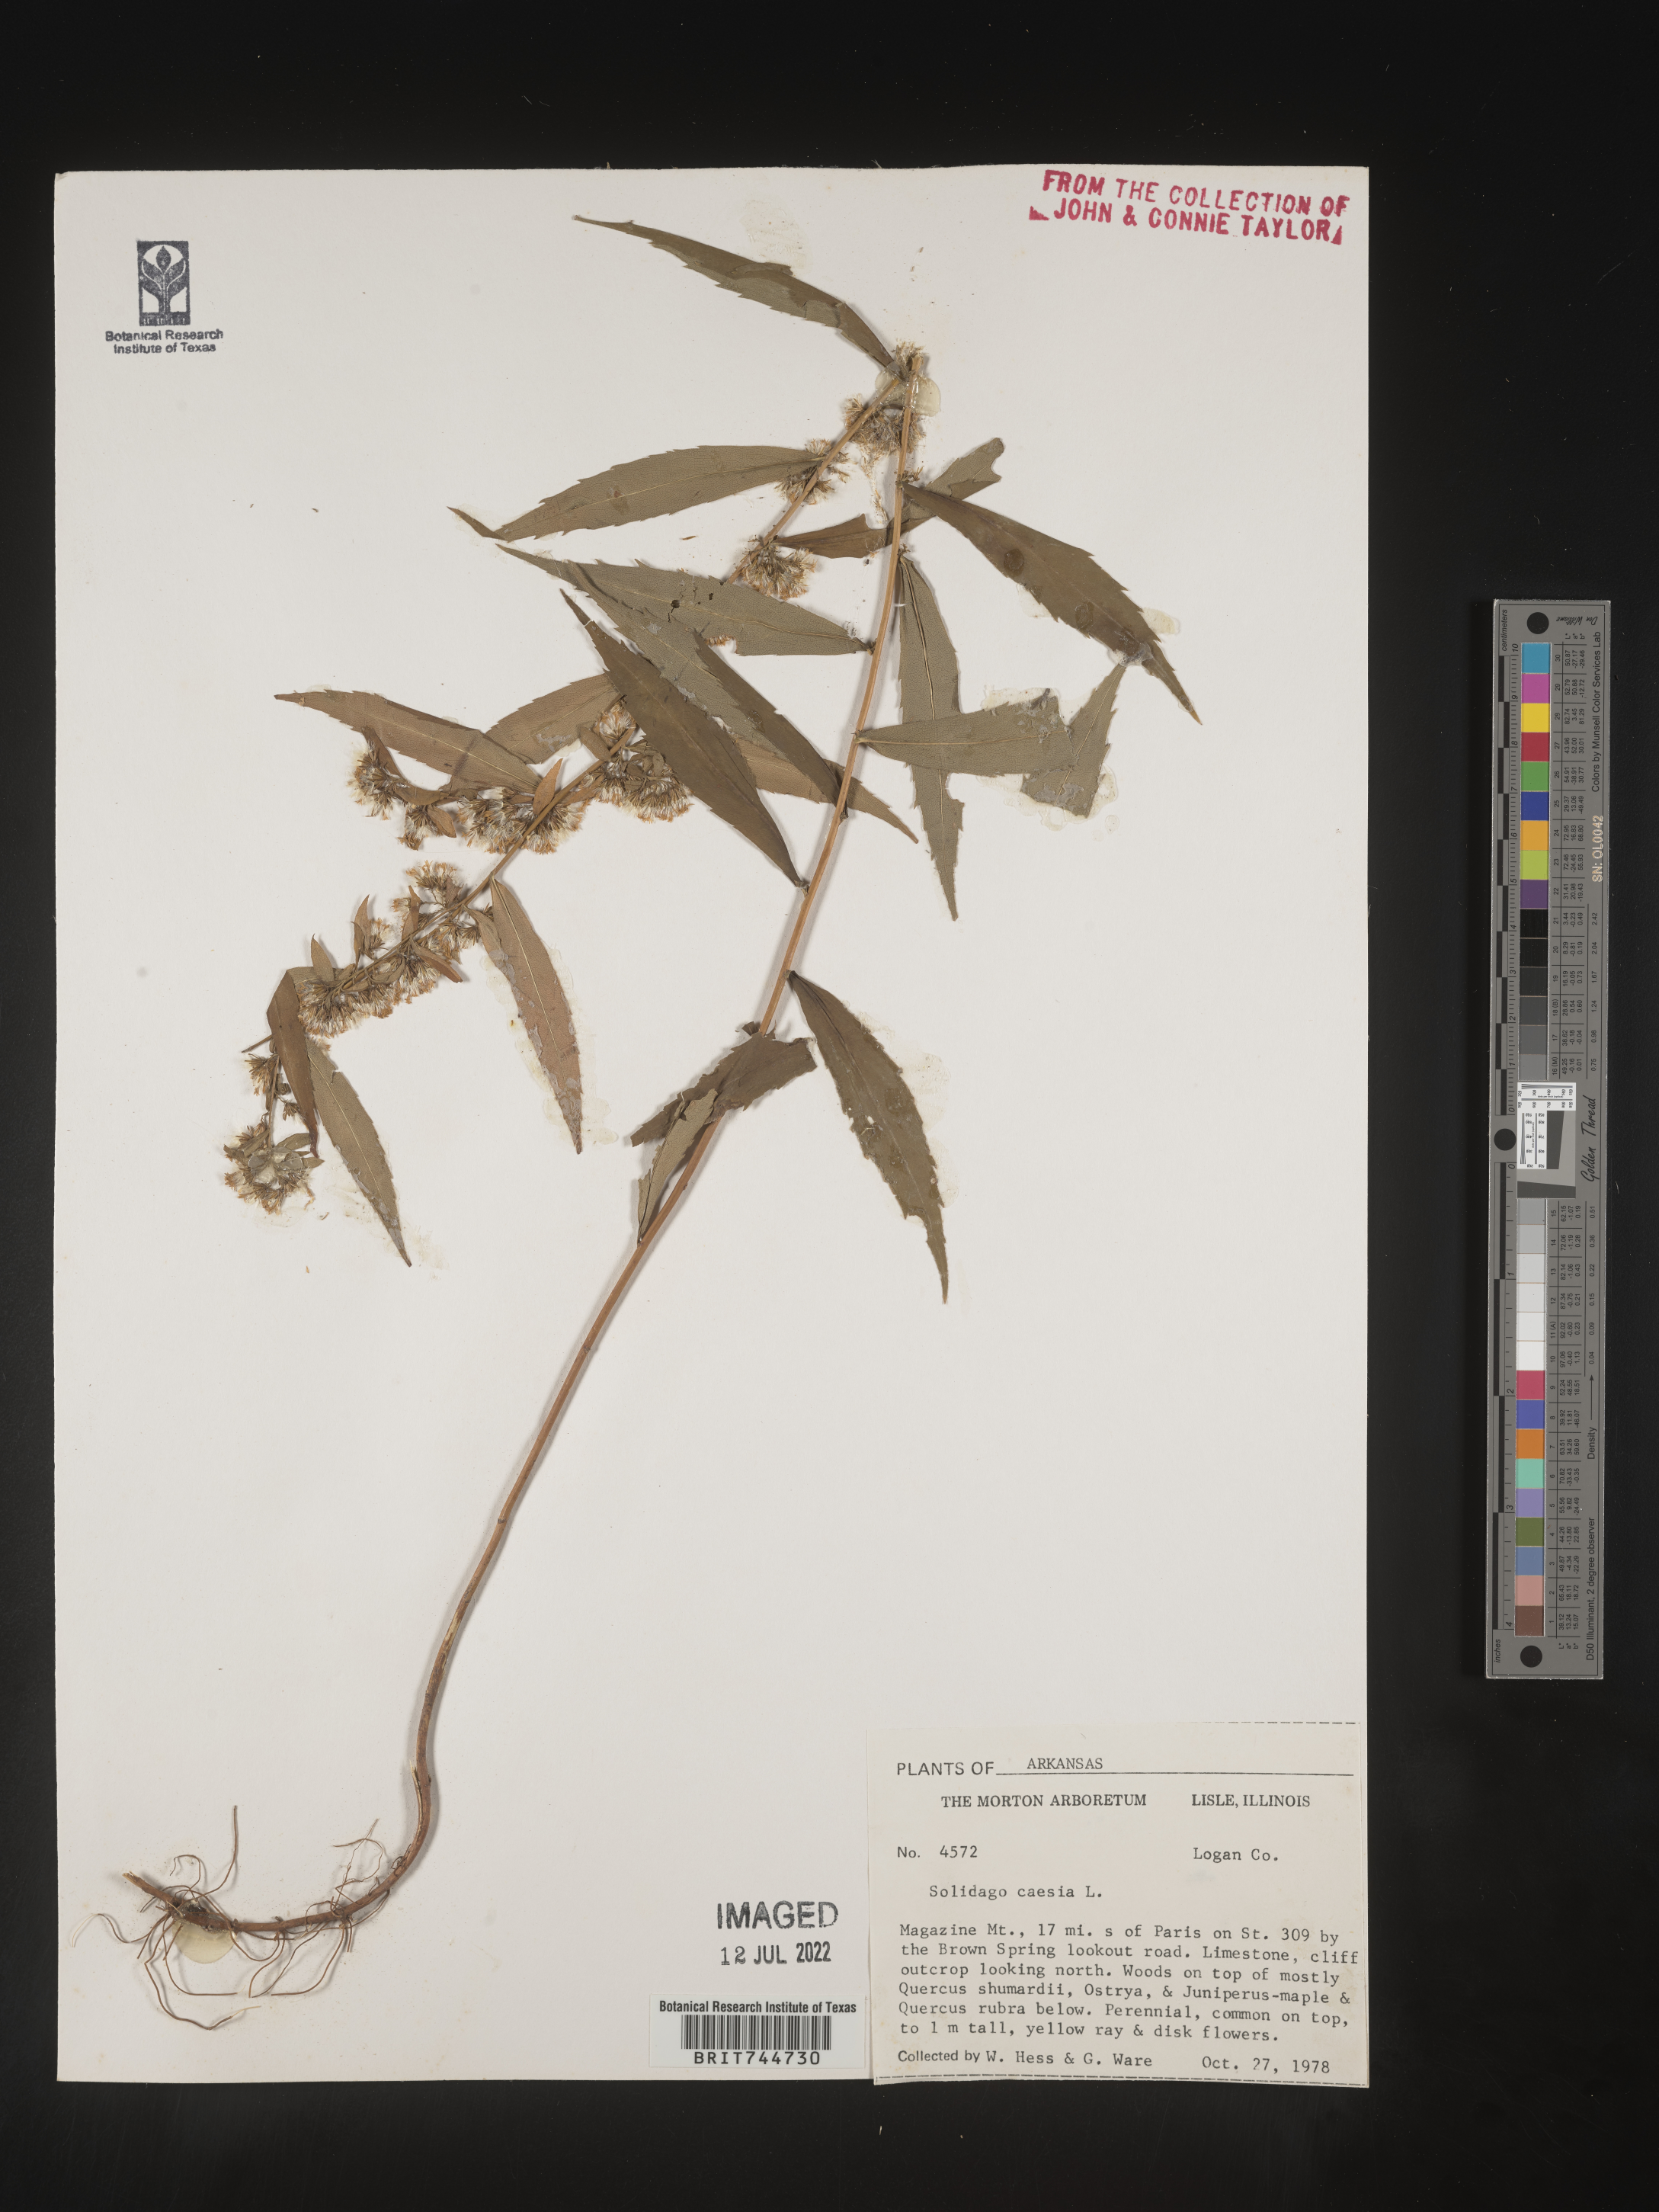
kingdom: Plantae
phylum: Tracheophyta
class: Magnoliopsida
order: Asterales
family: Asteraceae
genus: Solidago
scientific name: Solidago caesia
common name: Woodland goldenrod
